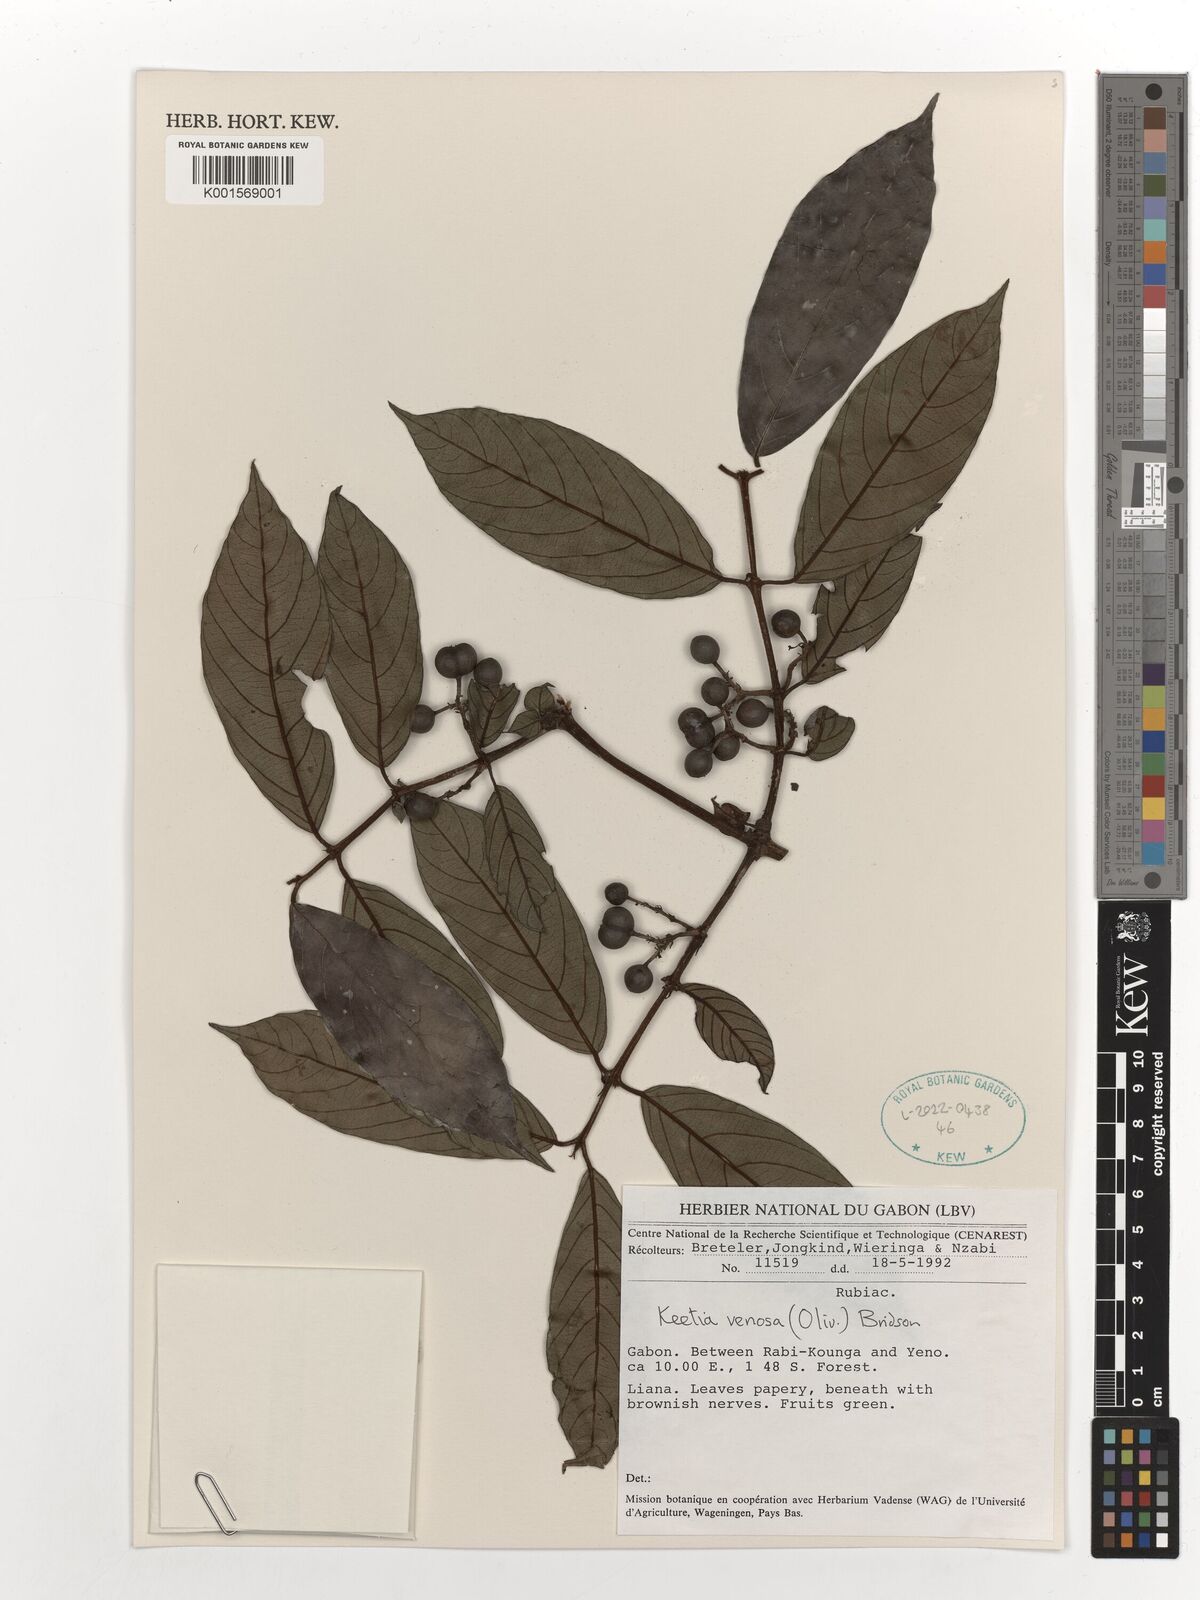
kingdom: Plantae
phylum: Tracheophyta
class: Magnoliopsida
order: Gentianales
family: Rubiaceae
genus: Keetia
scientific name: Keetia venosa
